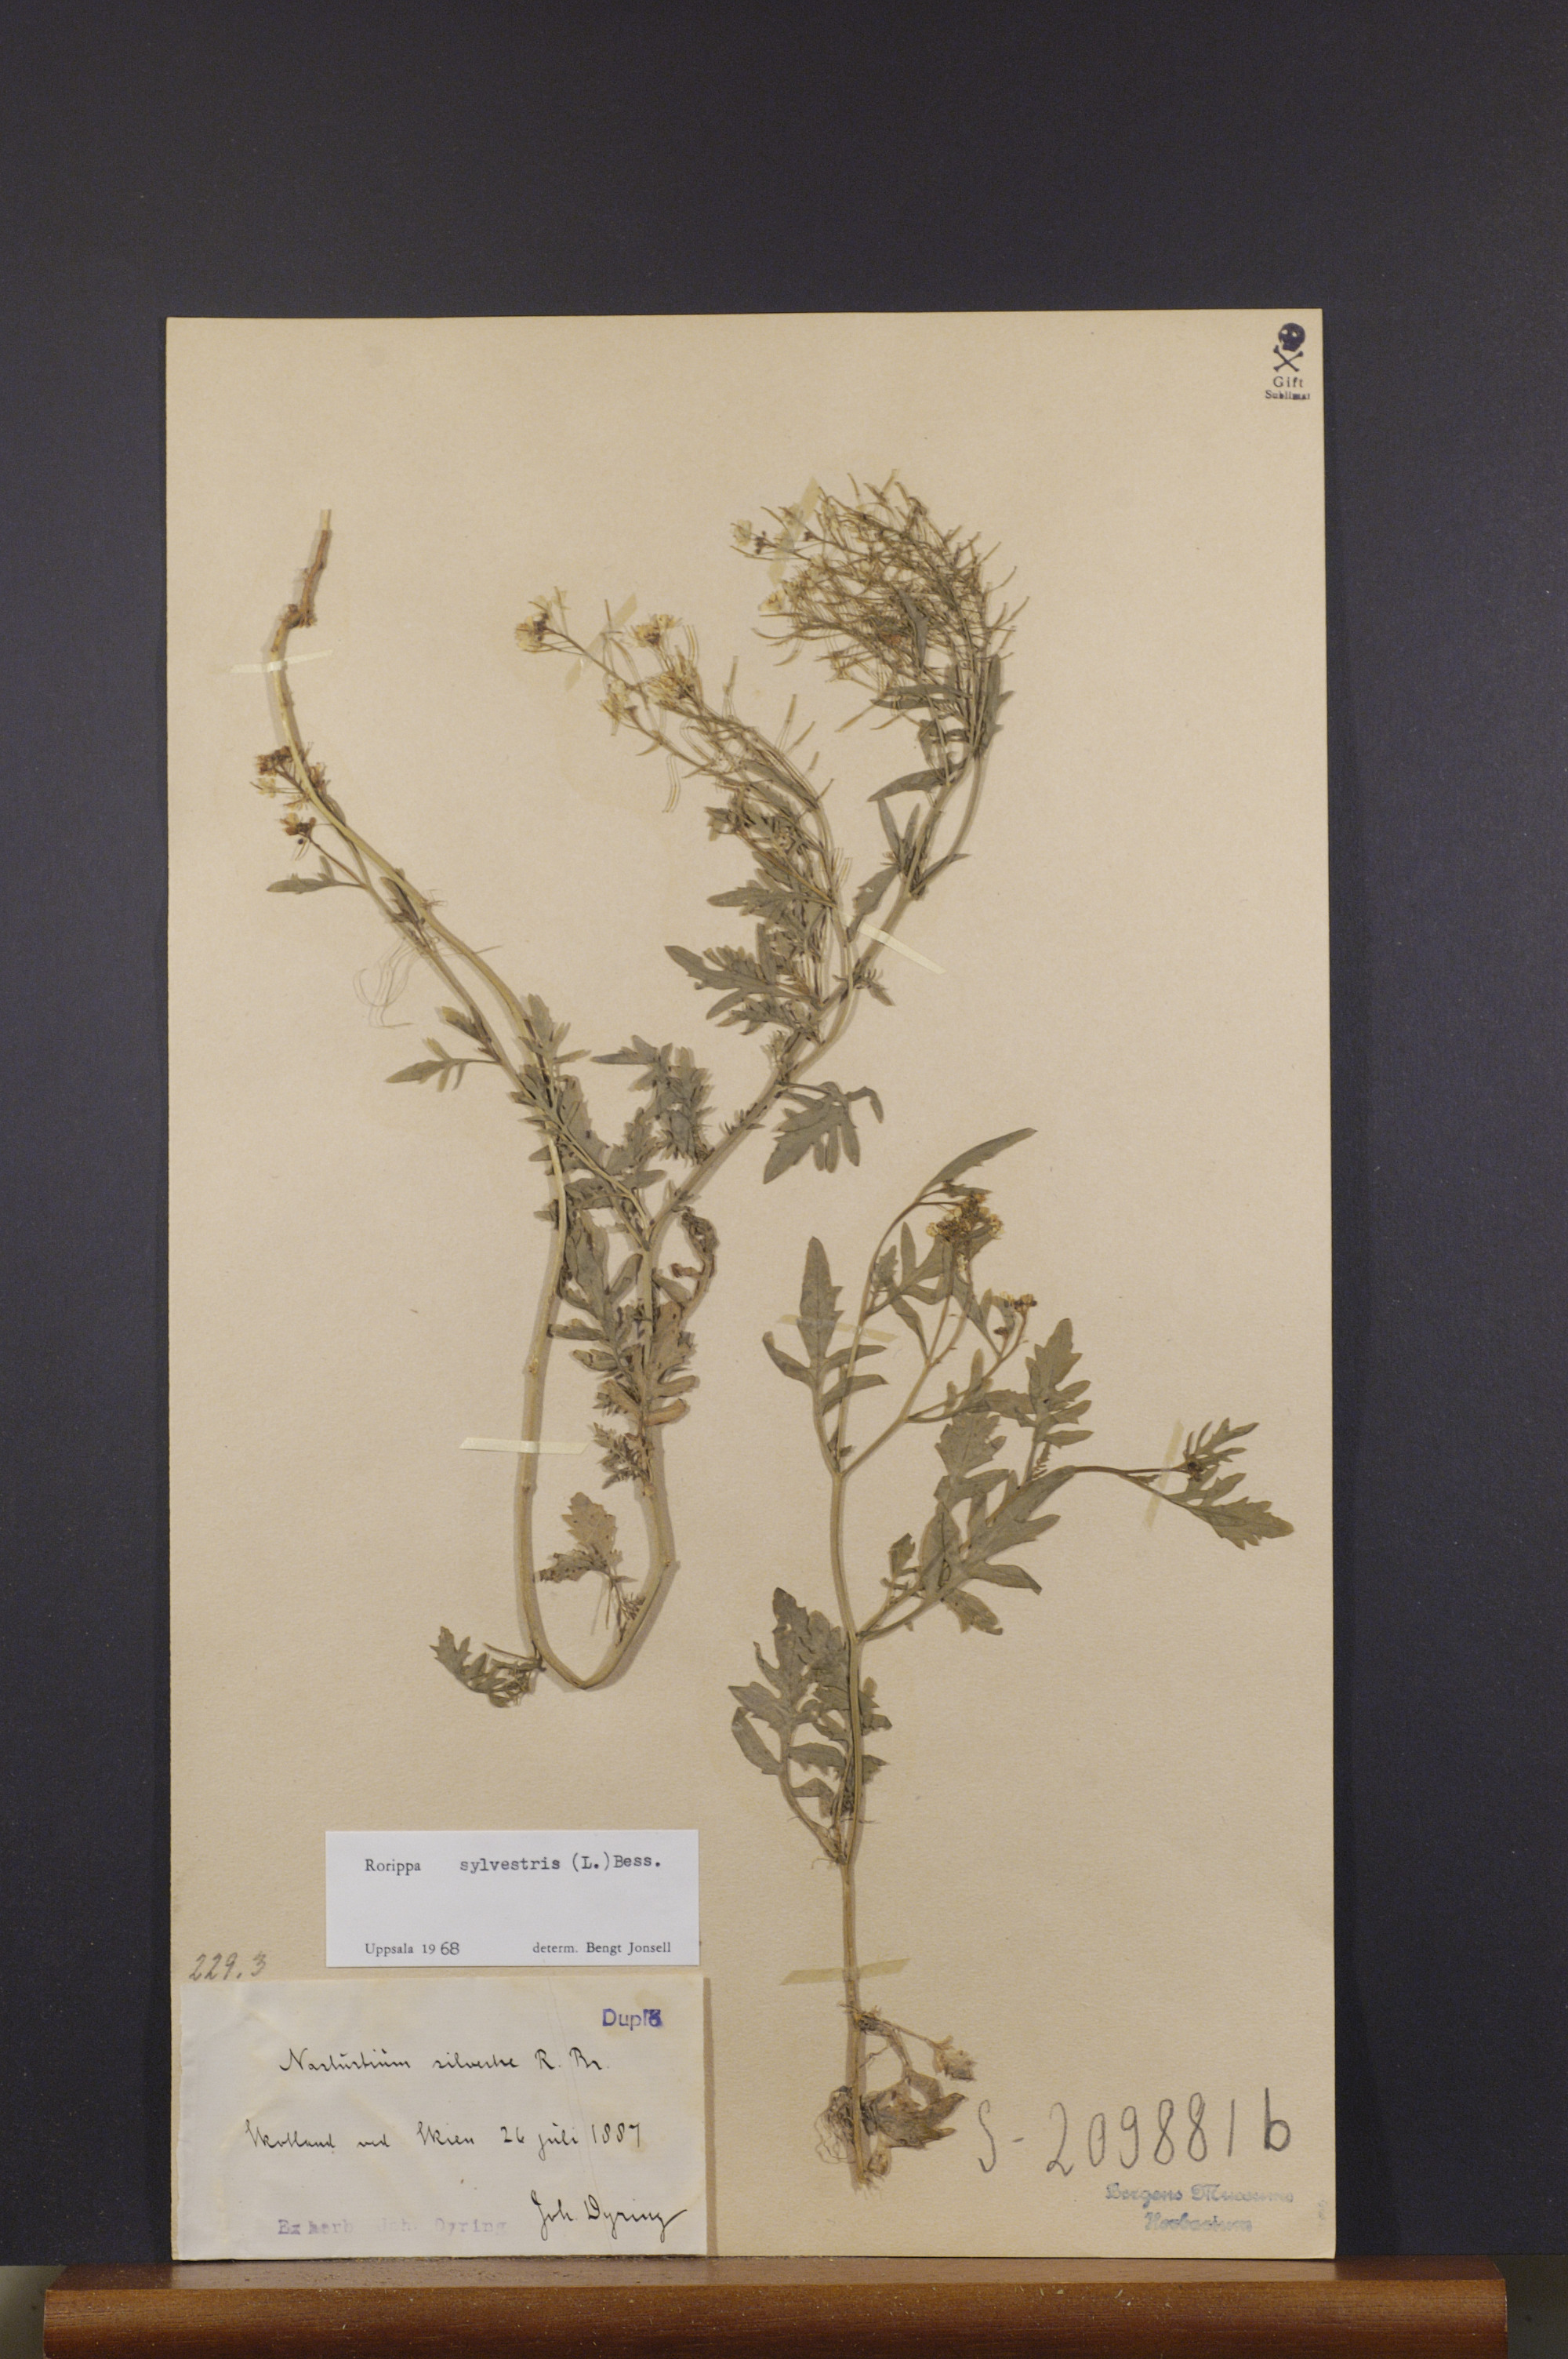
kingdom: Plantae
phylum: Tracheophyta
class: Magnoliopsida
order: Brassicales
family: Brassicaceae
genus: Rorippa
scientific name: Rorippa sylvestris
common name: Creeping yellowcress
